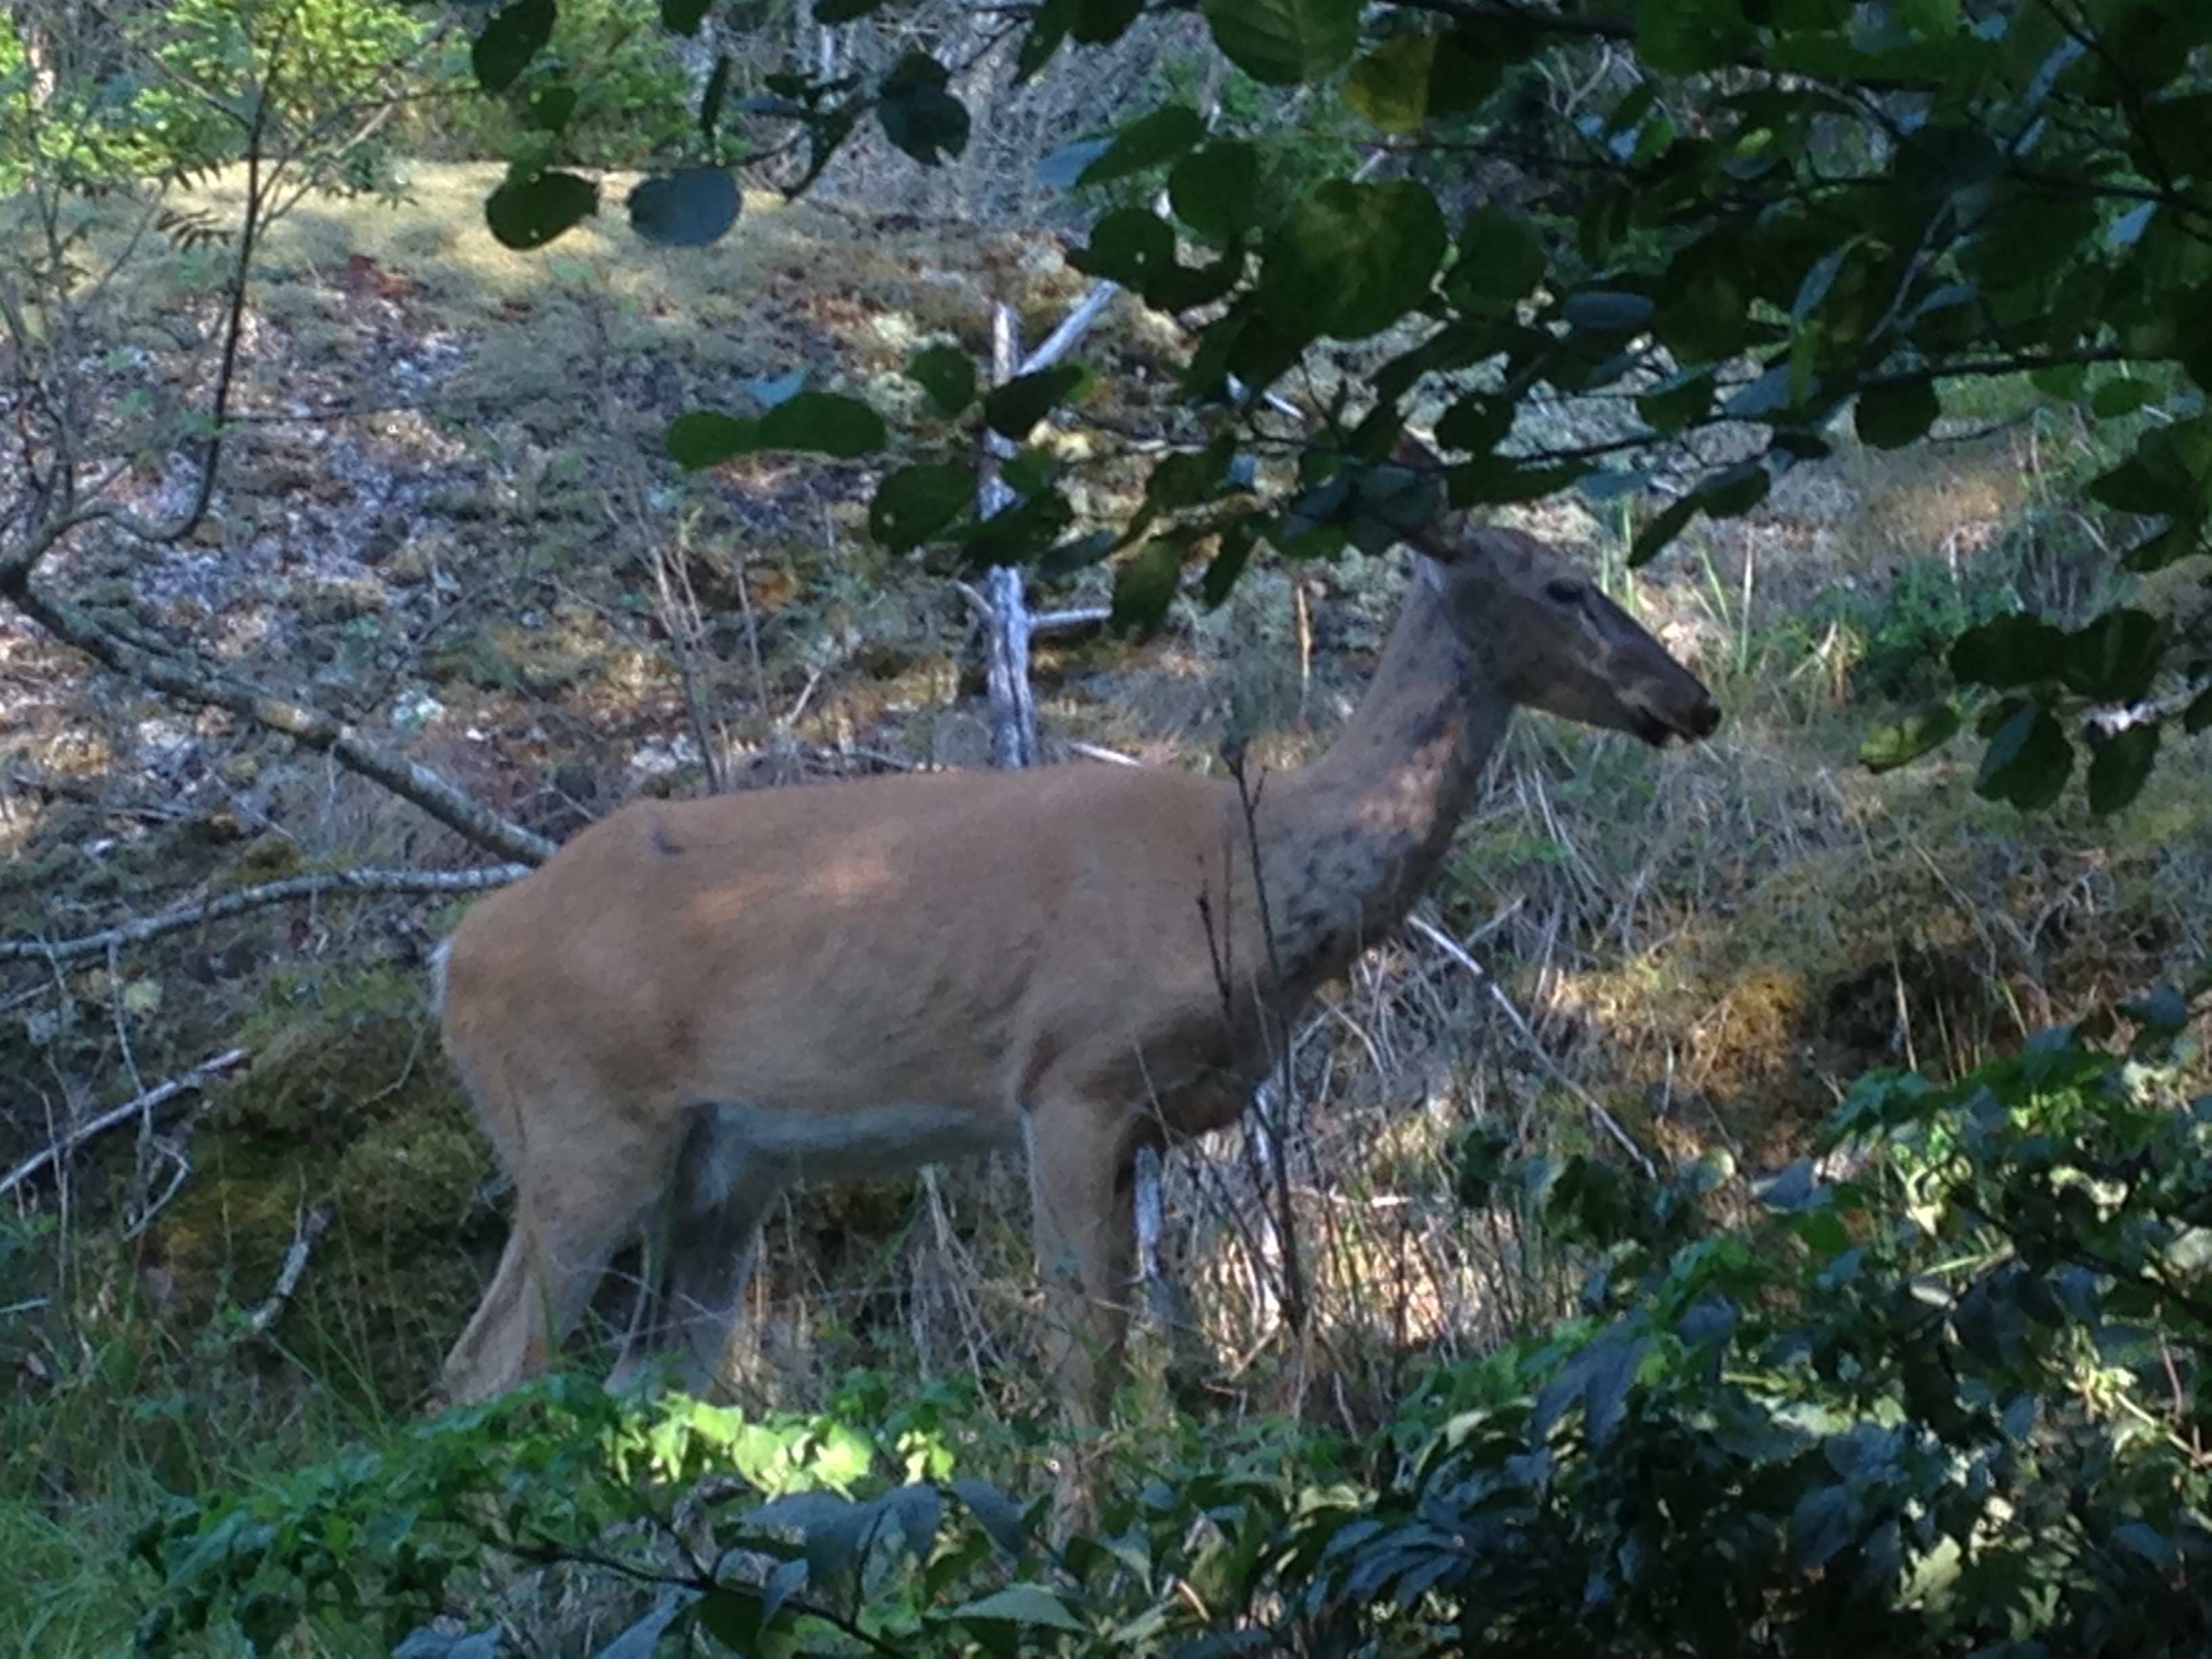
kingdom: Animalia
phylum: Chordata
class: Mammalia
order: Artiodactyla
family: Cervidae
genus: Odocoileus
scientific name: Odocoileus virginianus
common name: White-tailed deer
